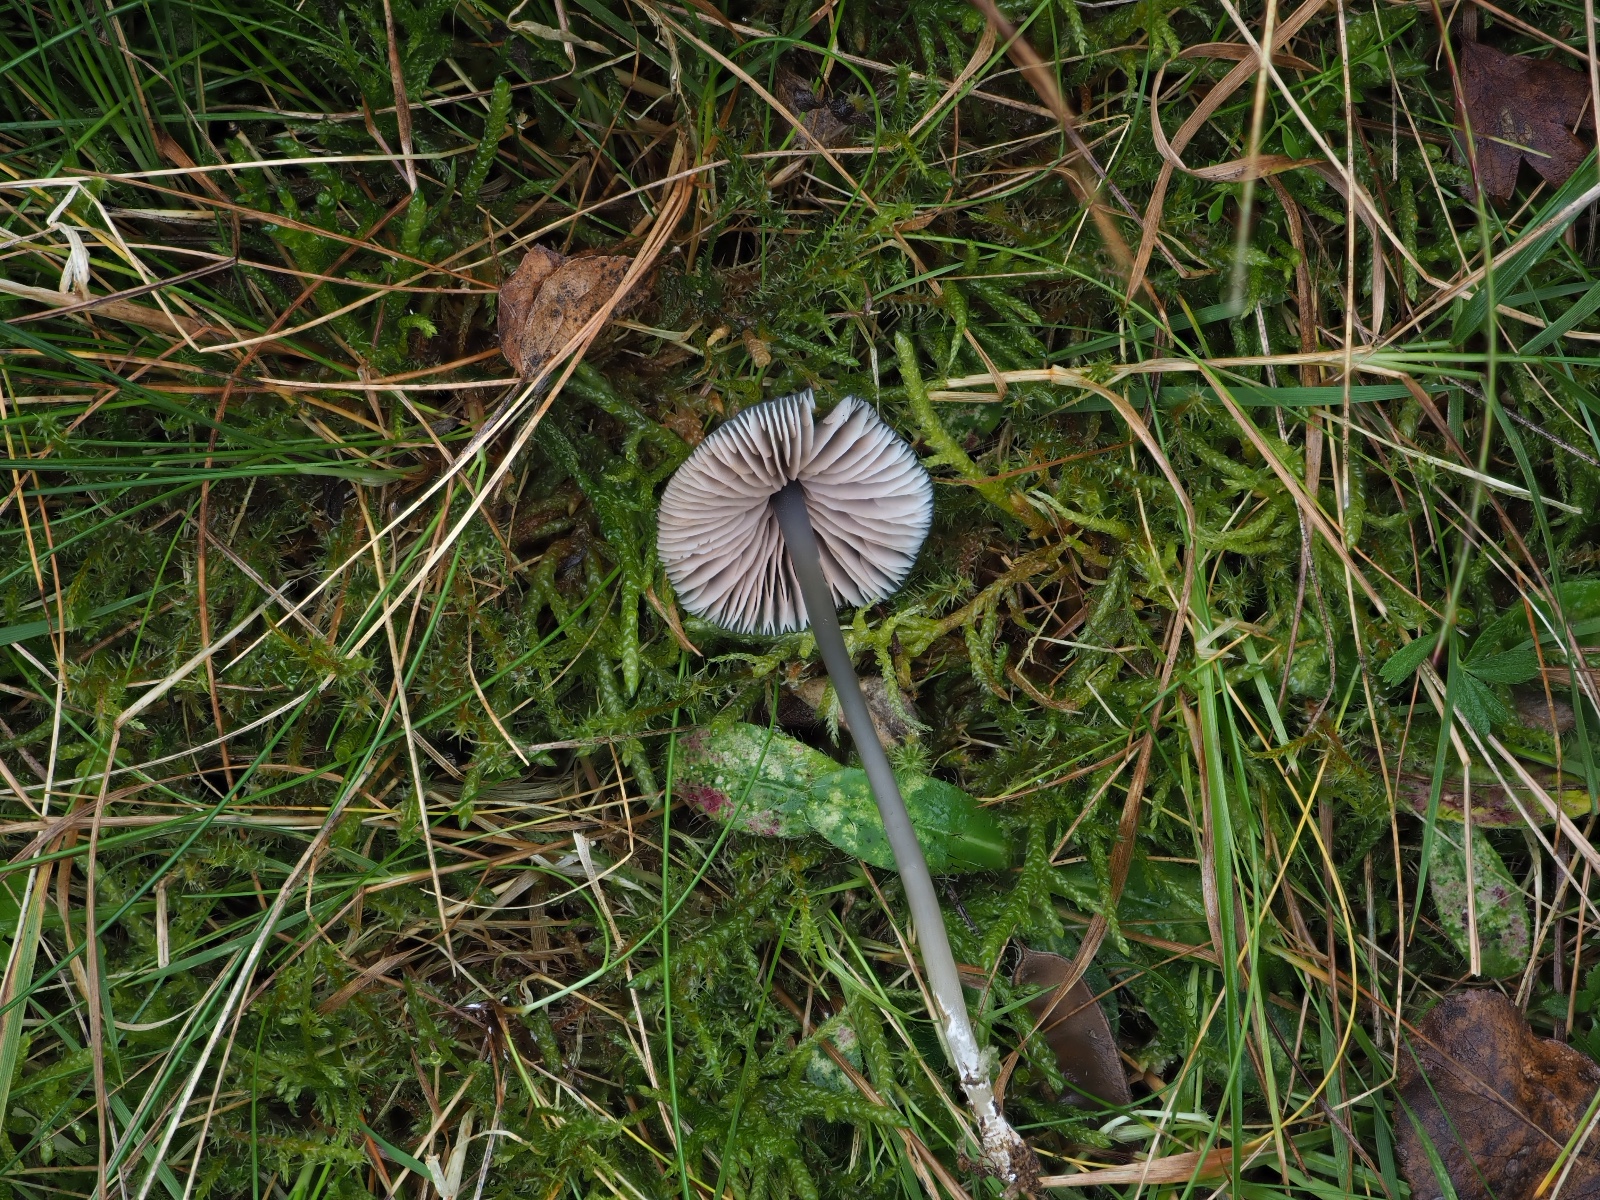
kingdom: Fungi
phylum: Basidiomycota
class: Agaricomycetes
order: Agaricales
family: Entolomataceae
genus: Entoloma
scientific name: Entoloma cyaneolilacinum
